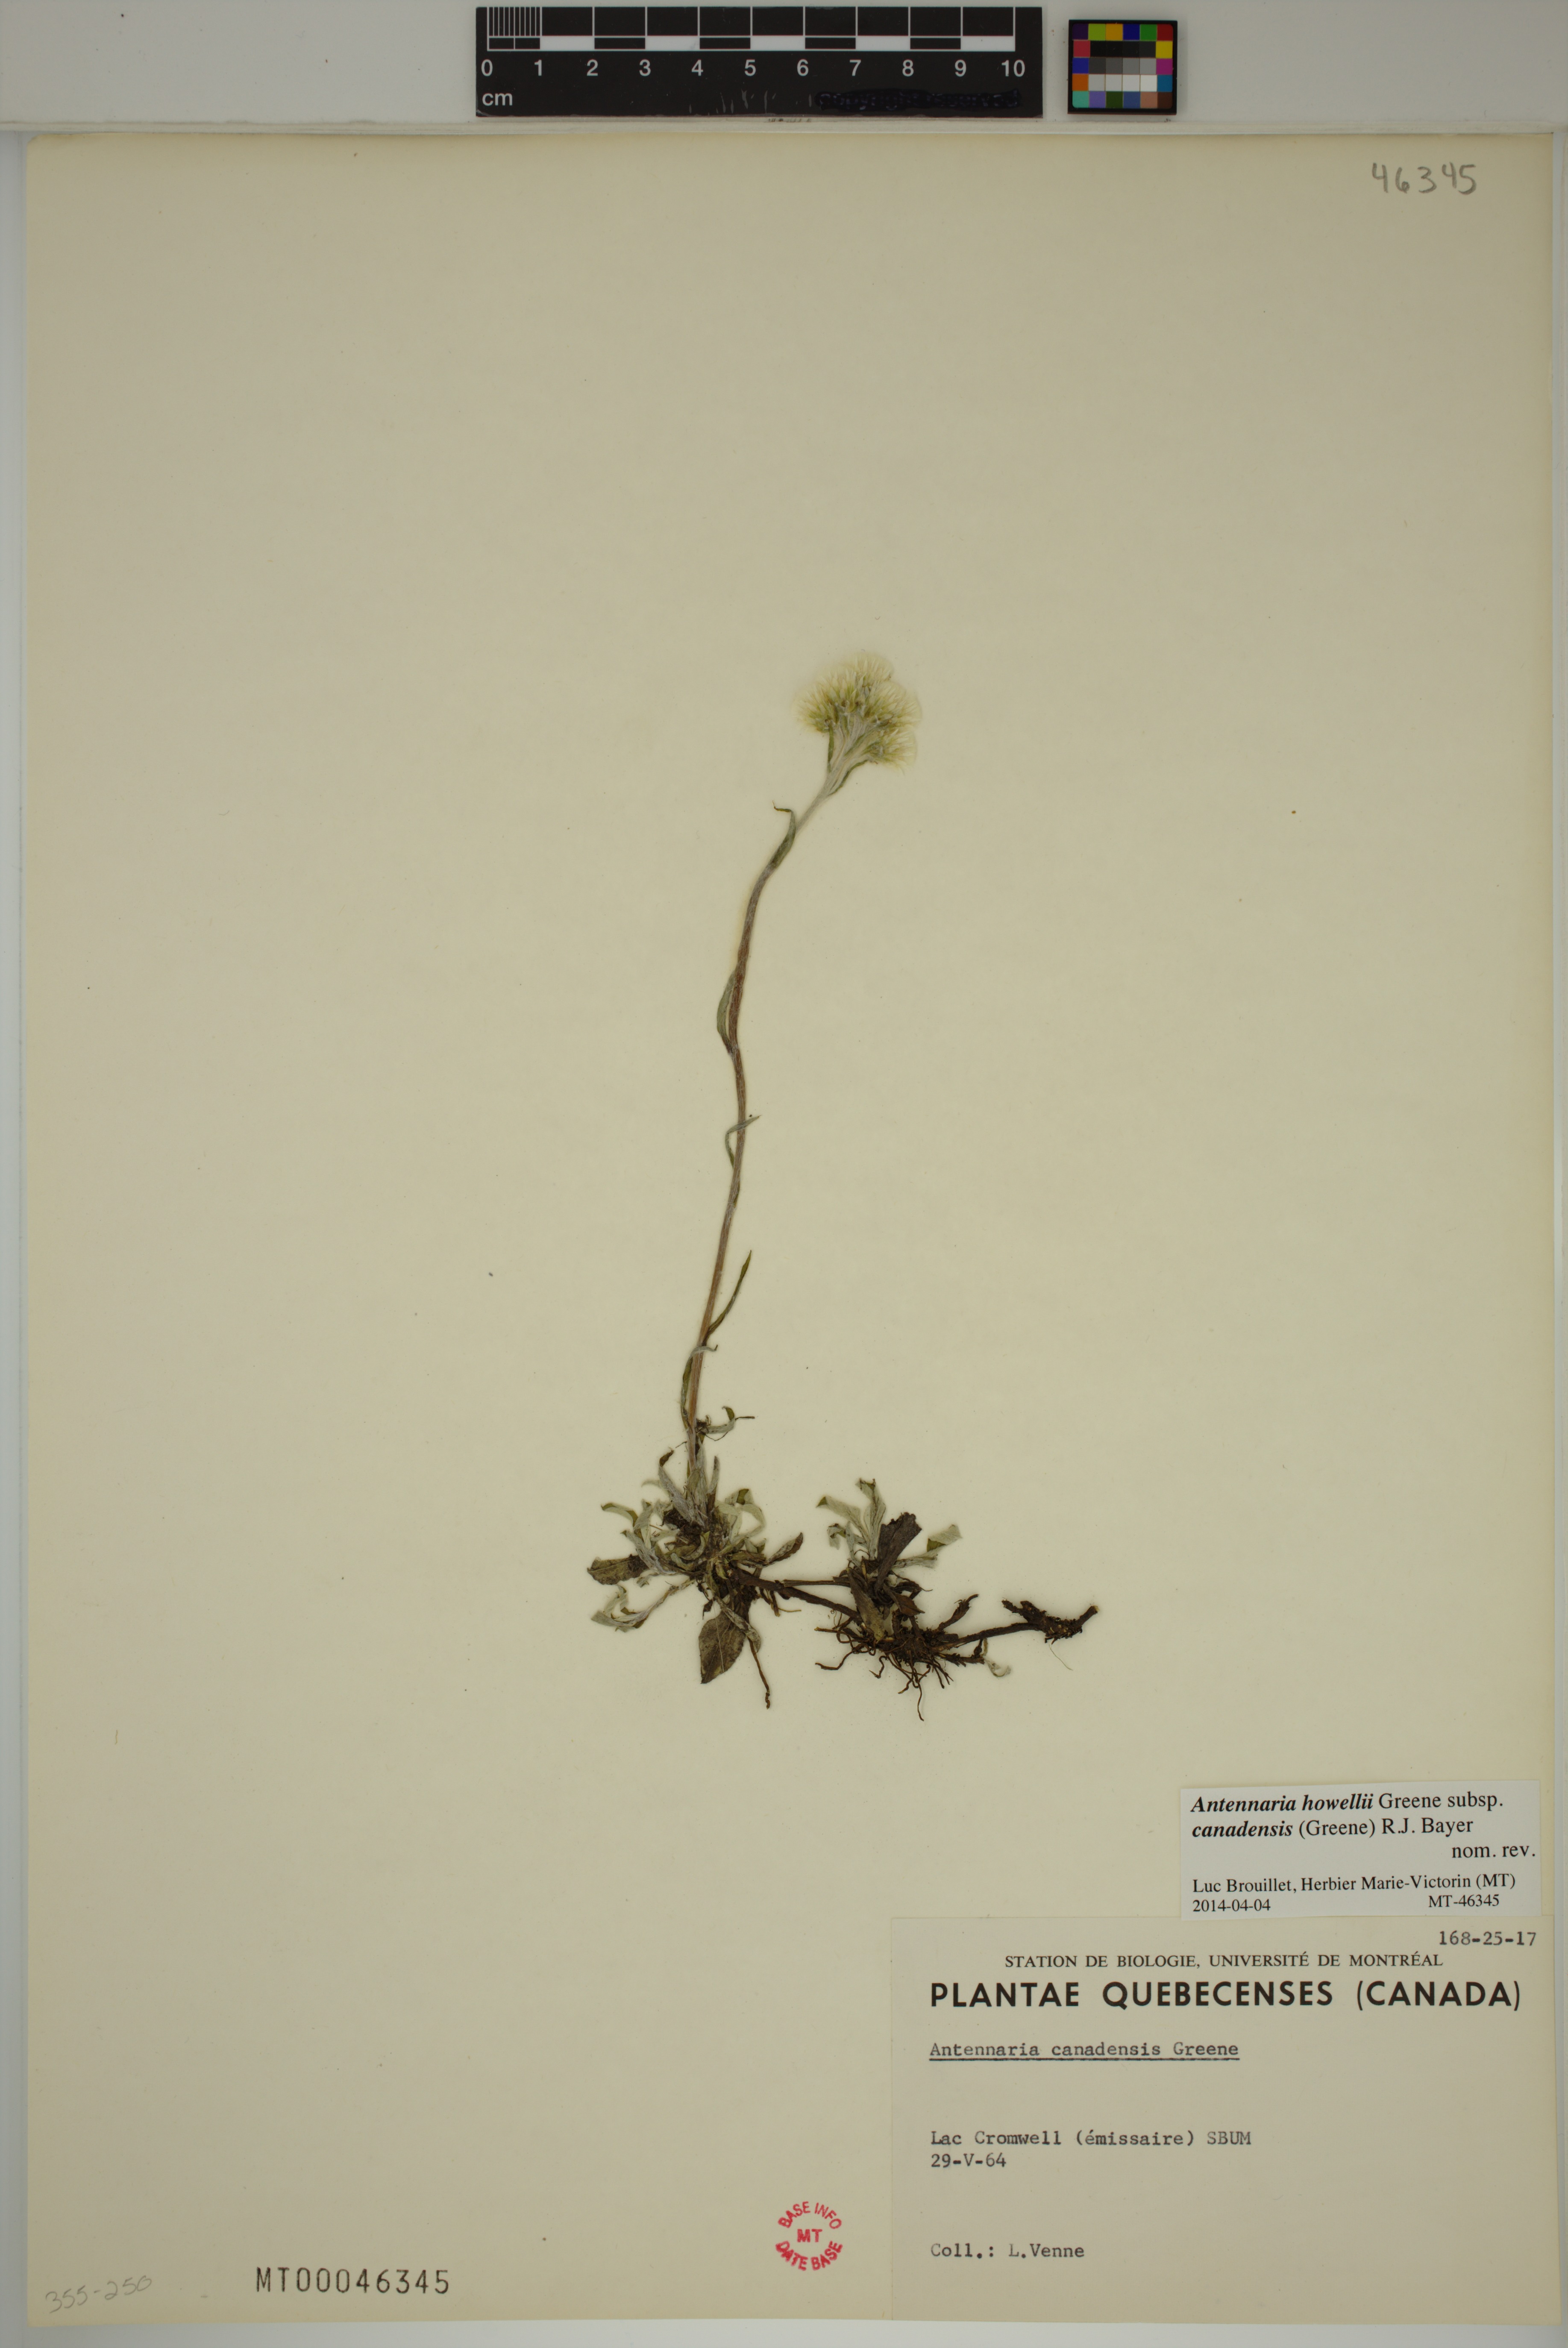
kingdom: Plantae
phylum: Tracheophyta
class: Magnoliopsida
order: Asterales
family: Asteraceae
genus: Antennaria
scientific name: Antennaria howellii
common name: Howell's pussytoes
